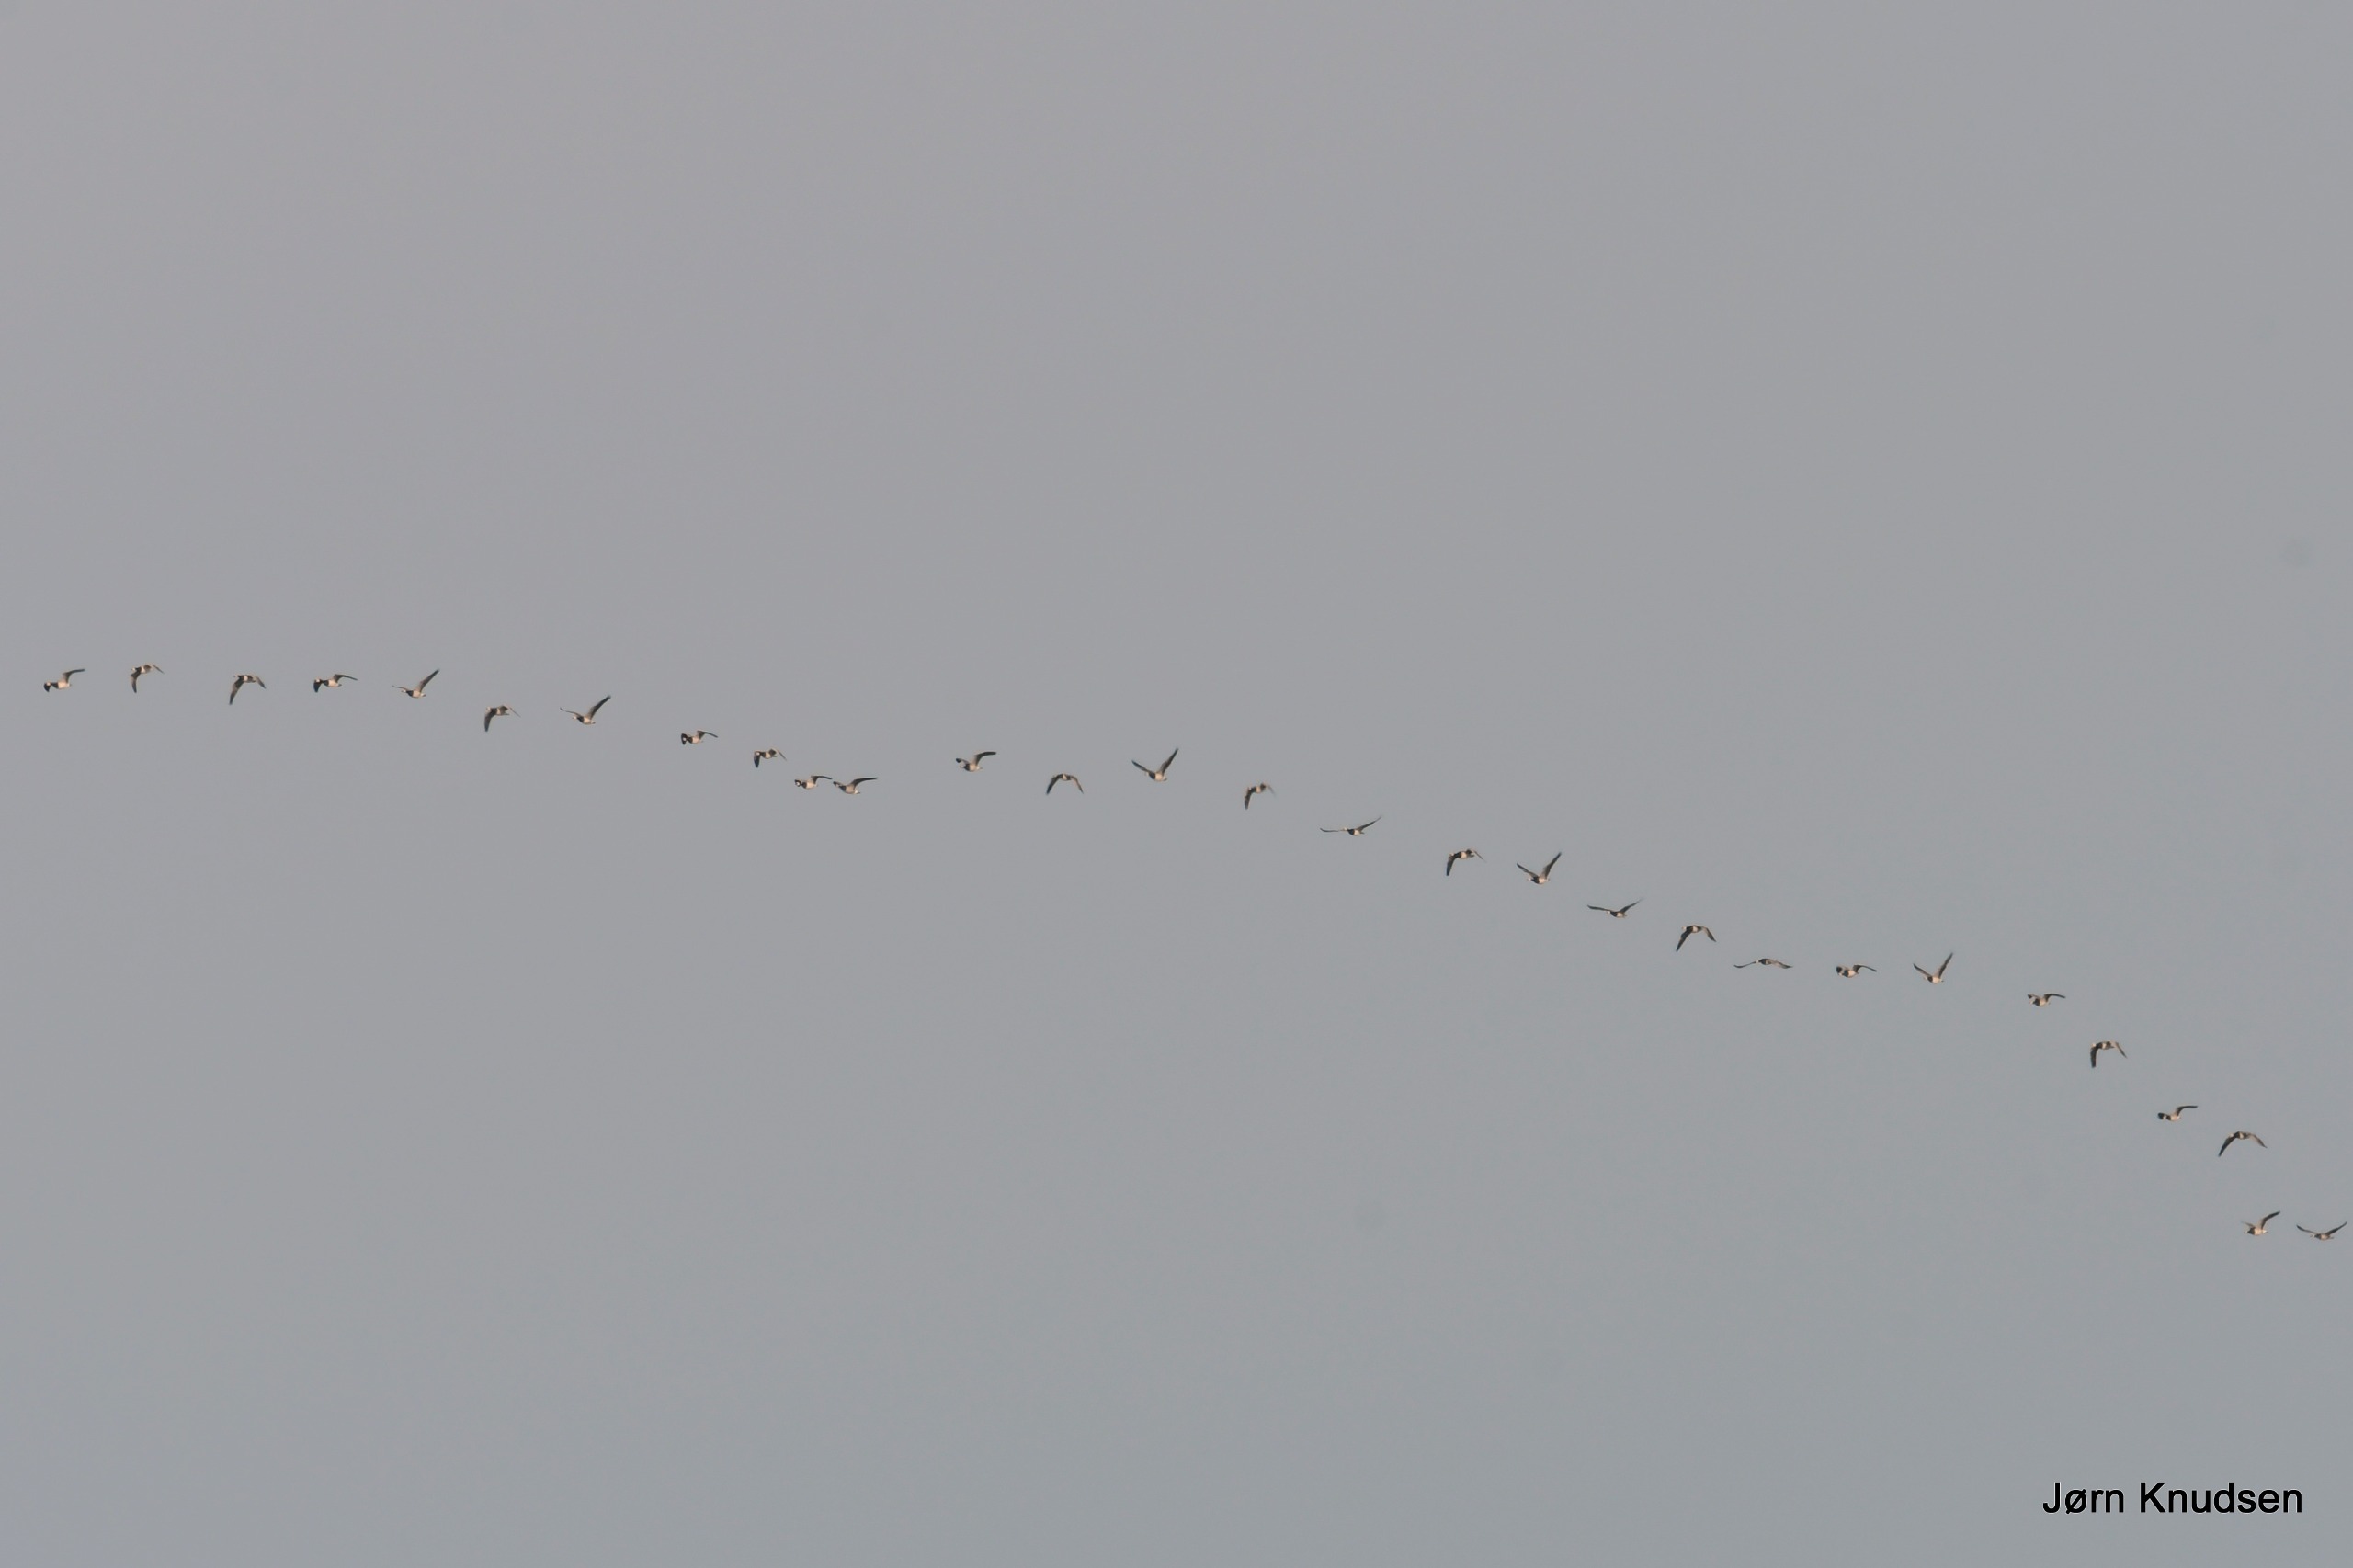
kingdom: Animalia
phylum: Chordata
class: Aves
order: Anseriformes
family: Anatidae
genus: Branta
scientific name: Branta leucopsis
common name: Bramgås
